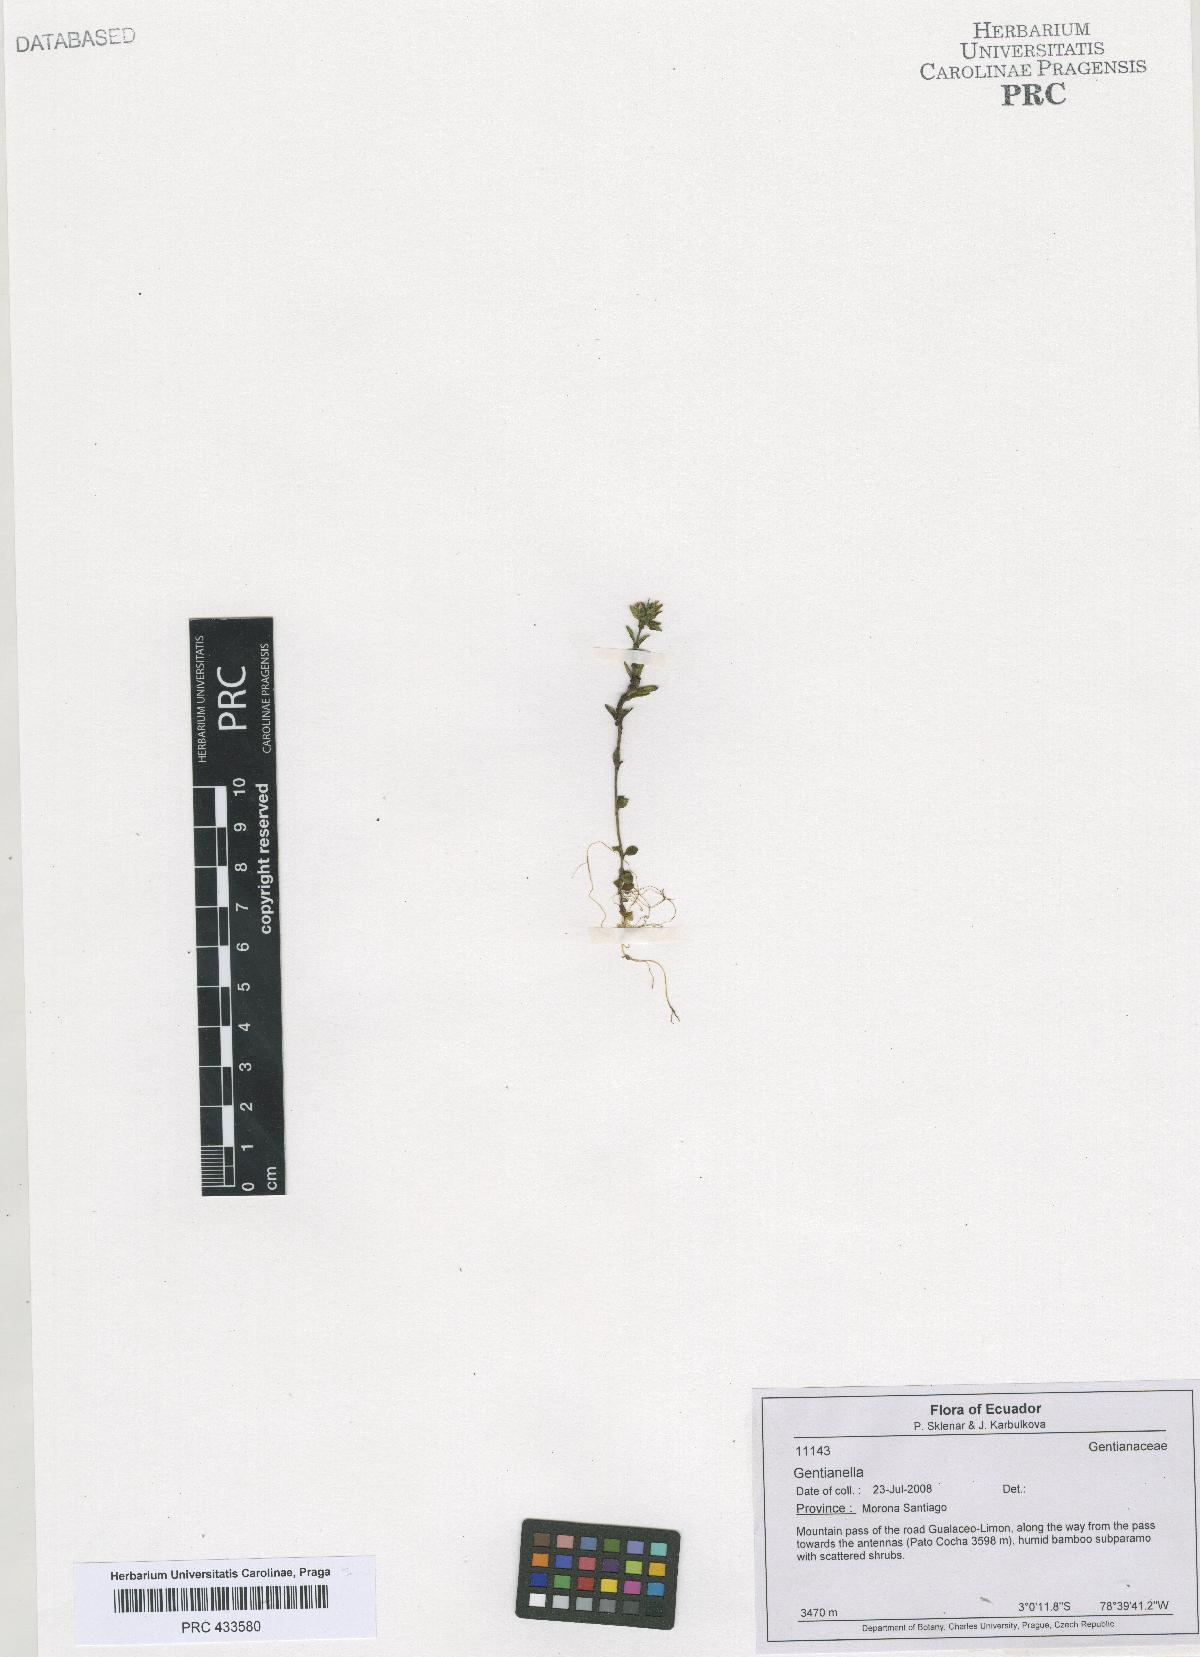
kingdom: Plantae
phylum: Tracheophyta
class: Magnoliopsida
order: Gentianales
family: Gentianaceae
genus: Gentianella
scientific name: Gentianella
